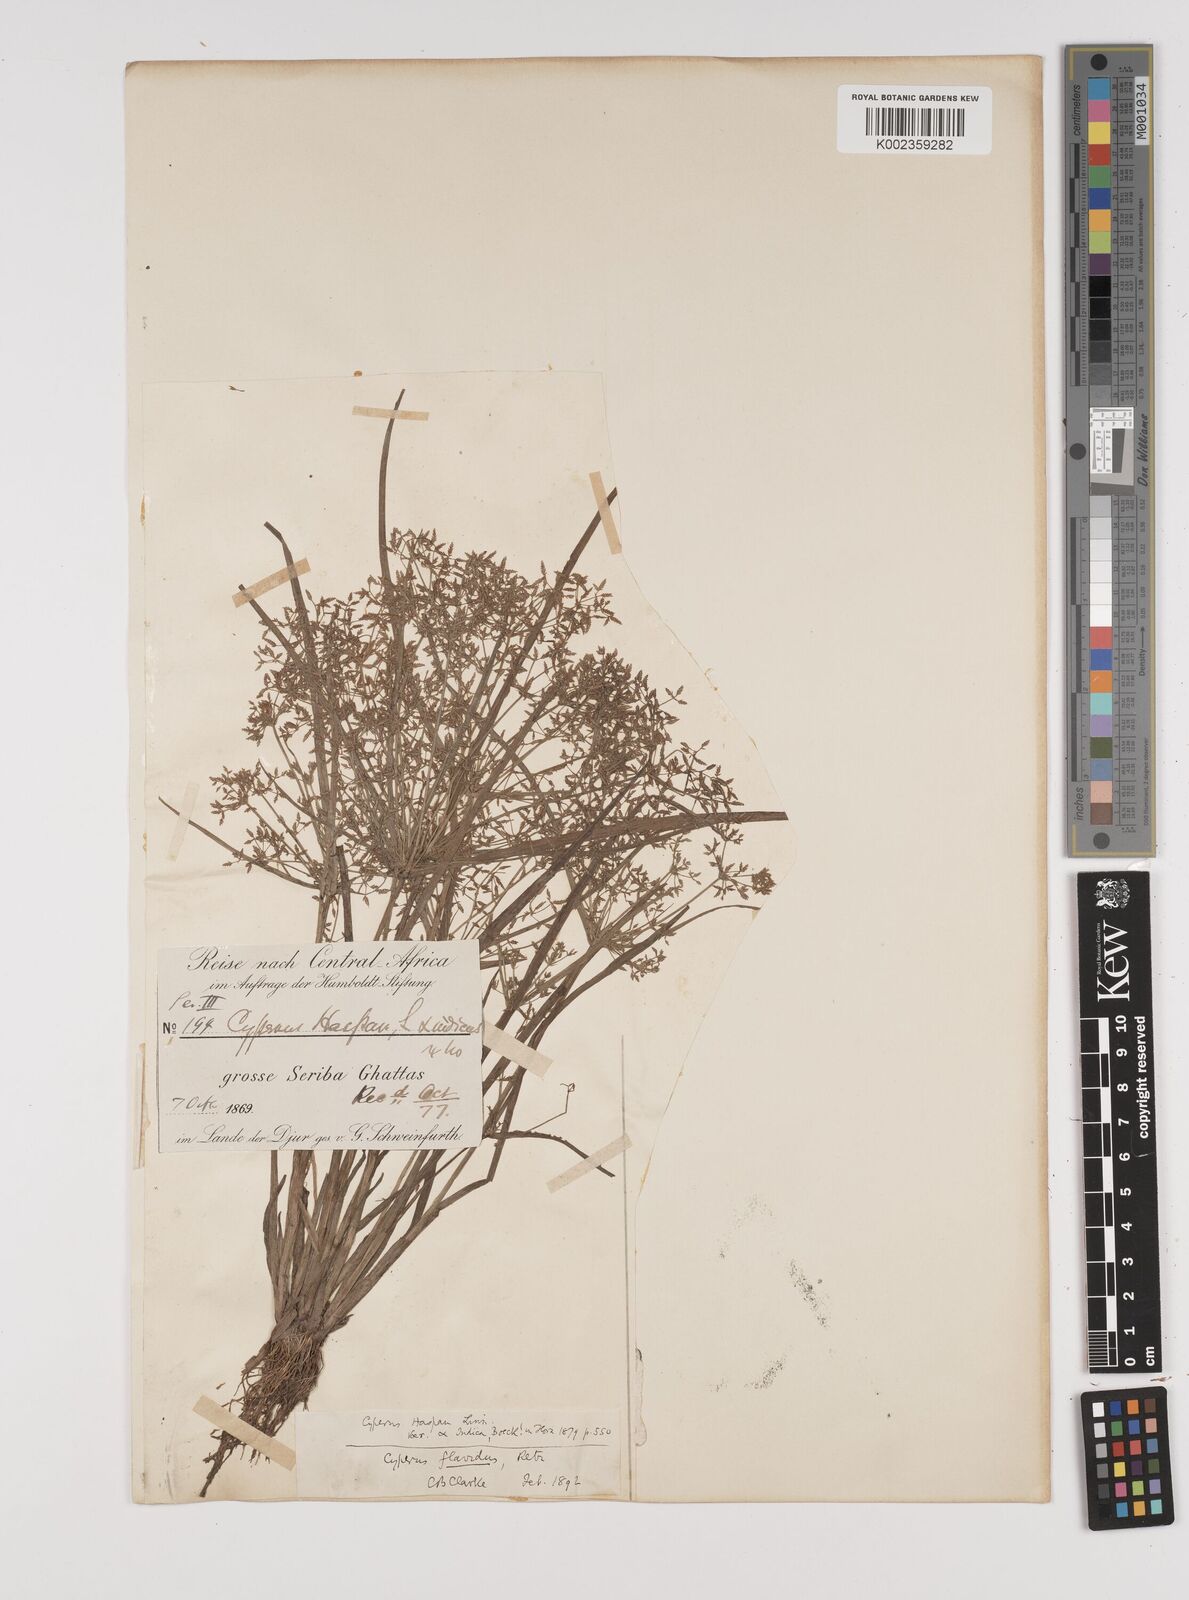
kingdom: Plantae
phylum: Tracheophyta
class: Liliopsida
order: Poales
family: Cyperaceae
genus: Cyperus
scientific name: Cyperus haspan
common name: Haspan flatsedge
